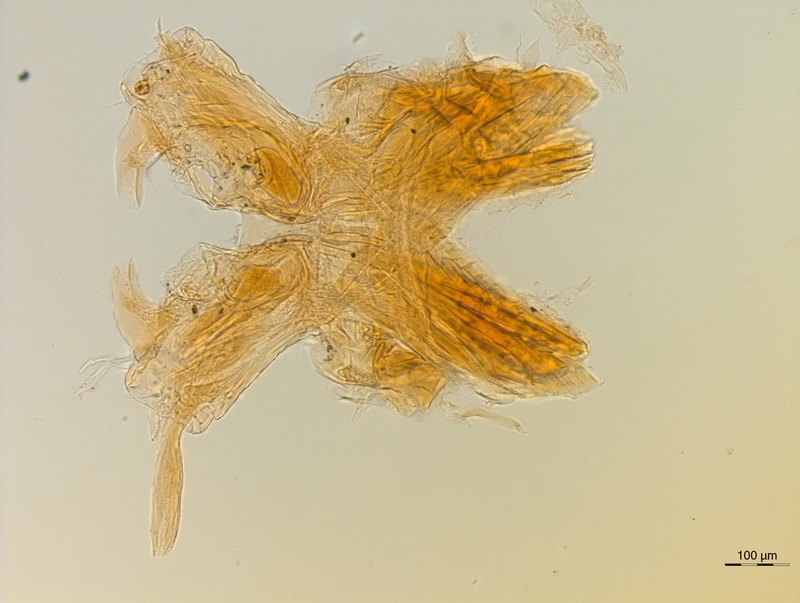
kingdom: Animalia
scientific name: Animalia
